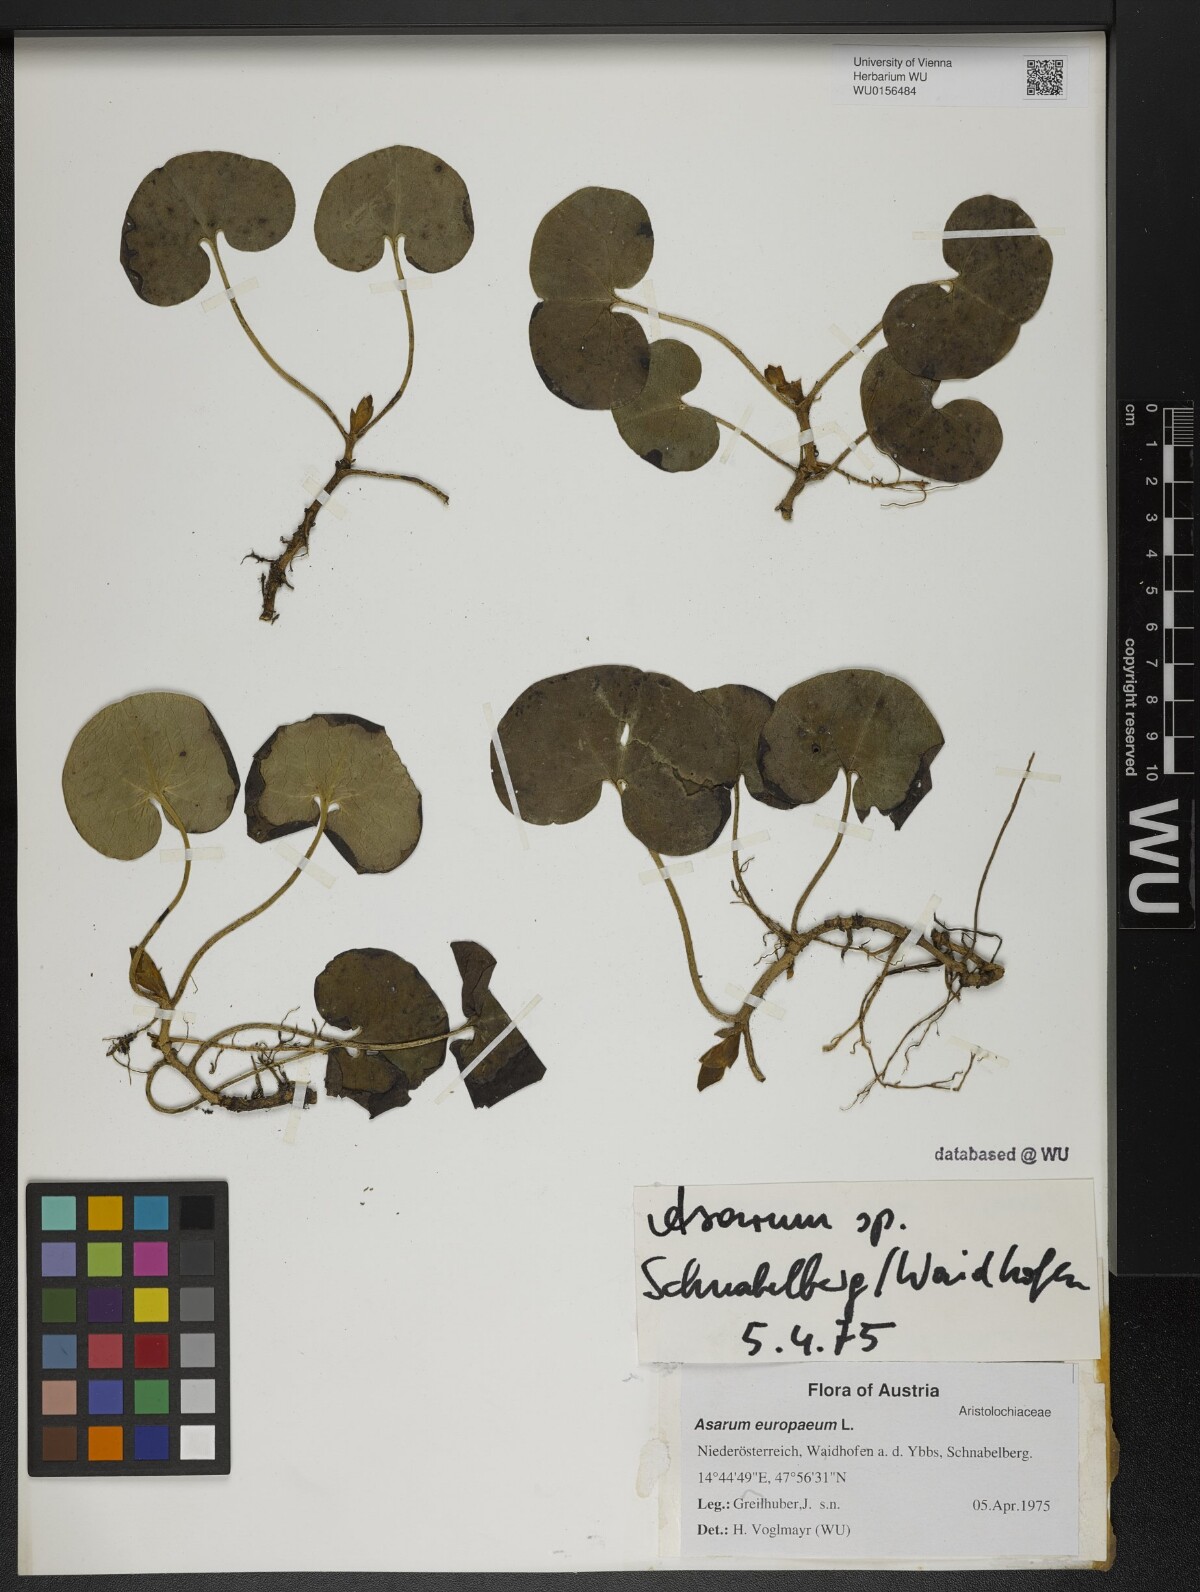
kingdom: Plantae
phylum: Tracheophyta
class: Magnoliopsida
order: Piperales
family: Aristolochiaceae
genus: Asarum
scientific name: Asarum europaeum
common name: Asarabacca
